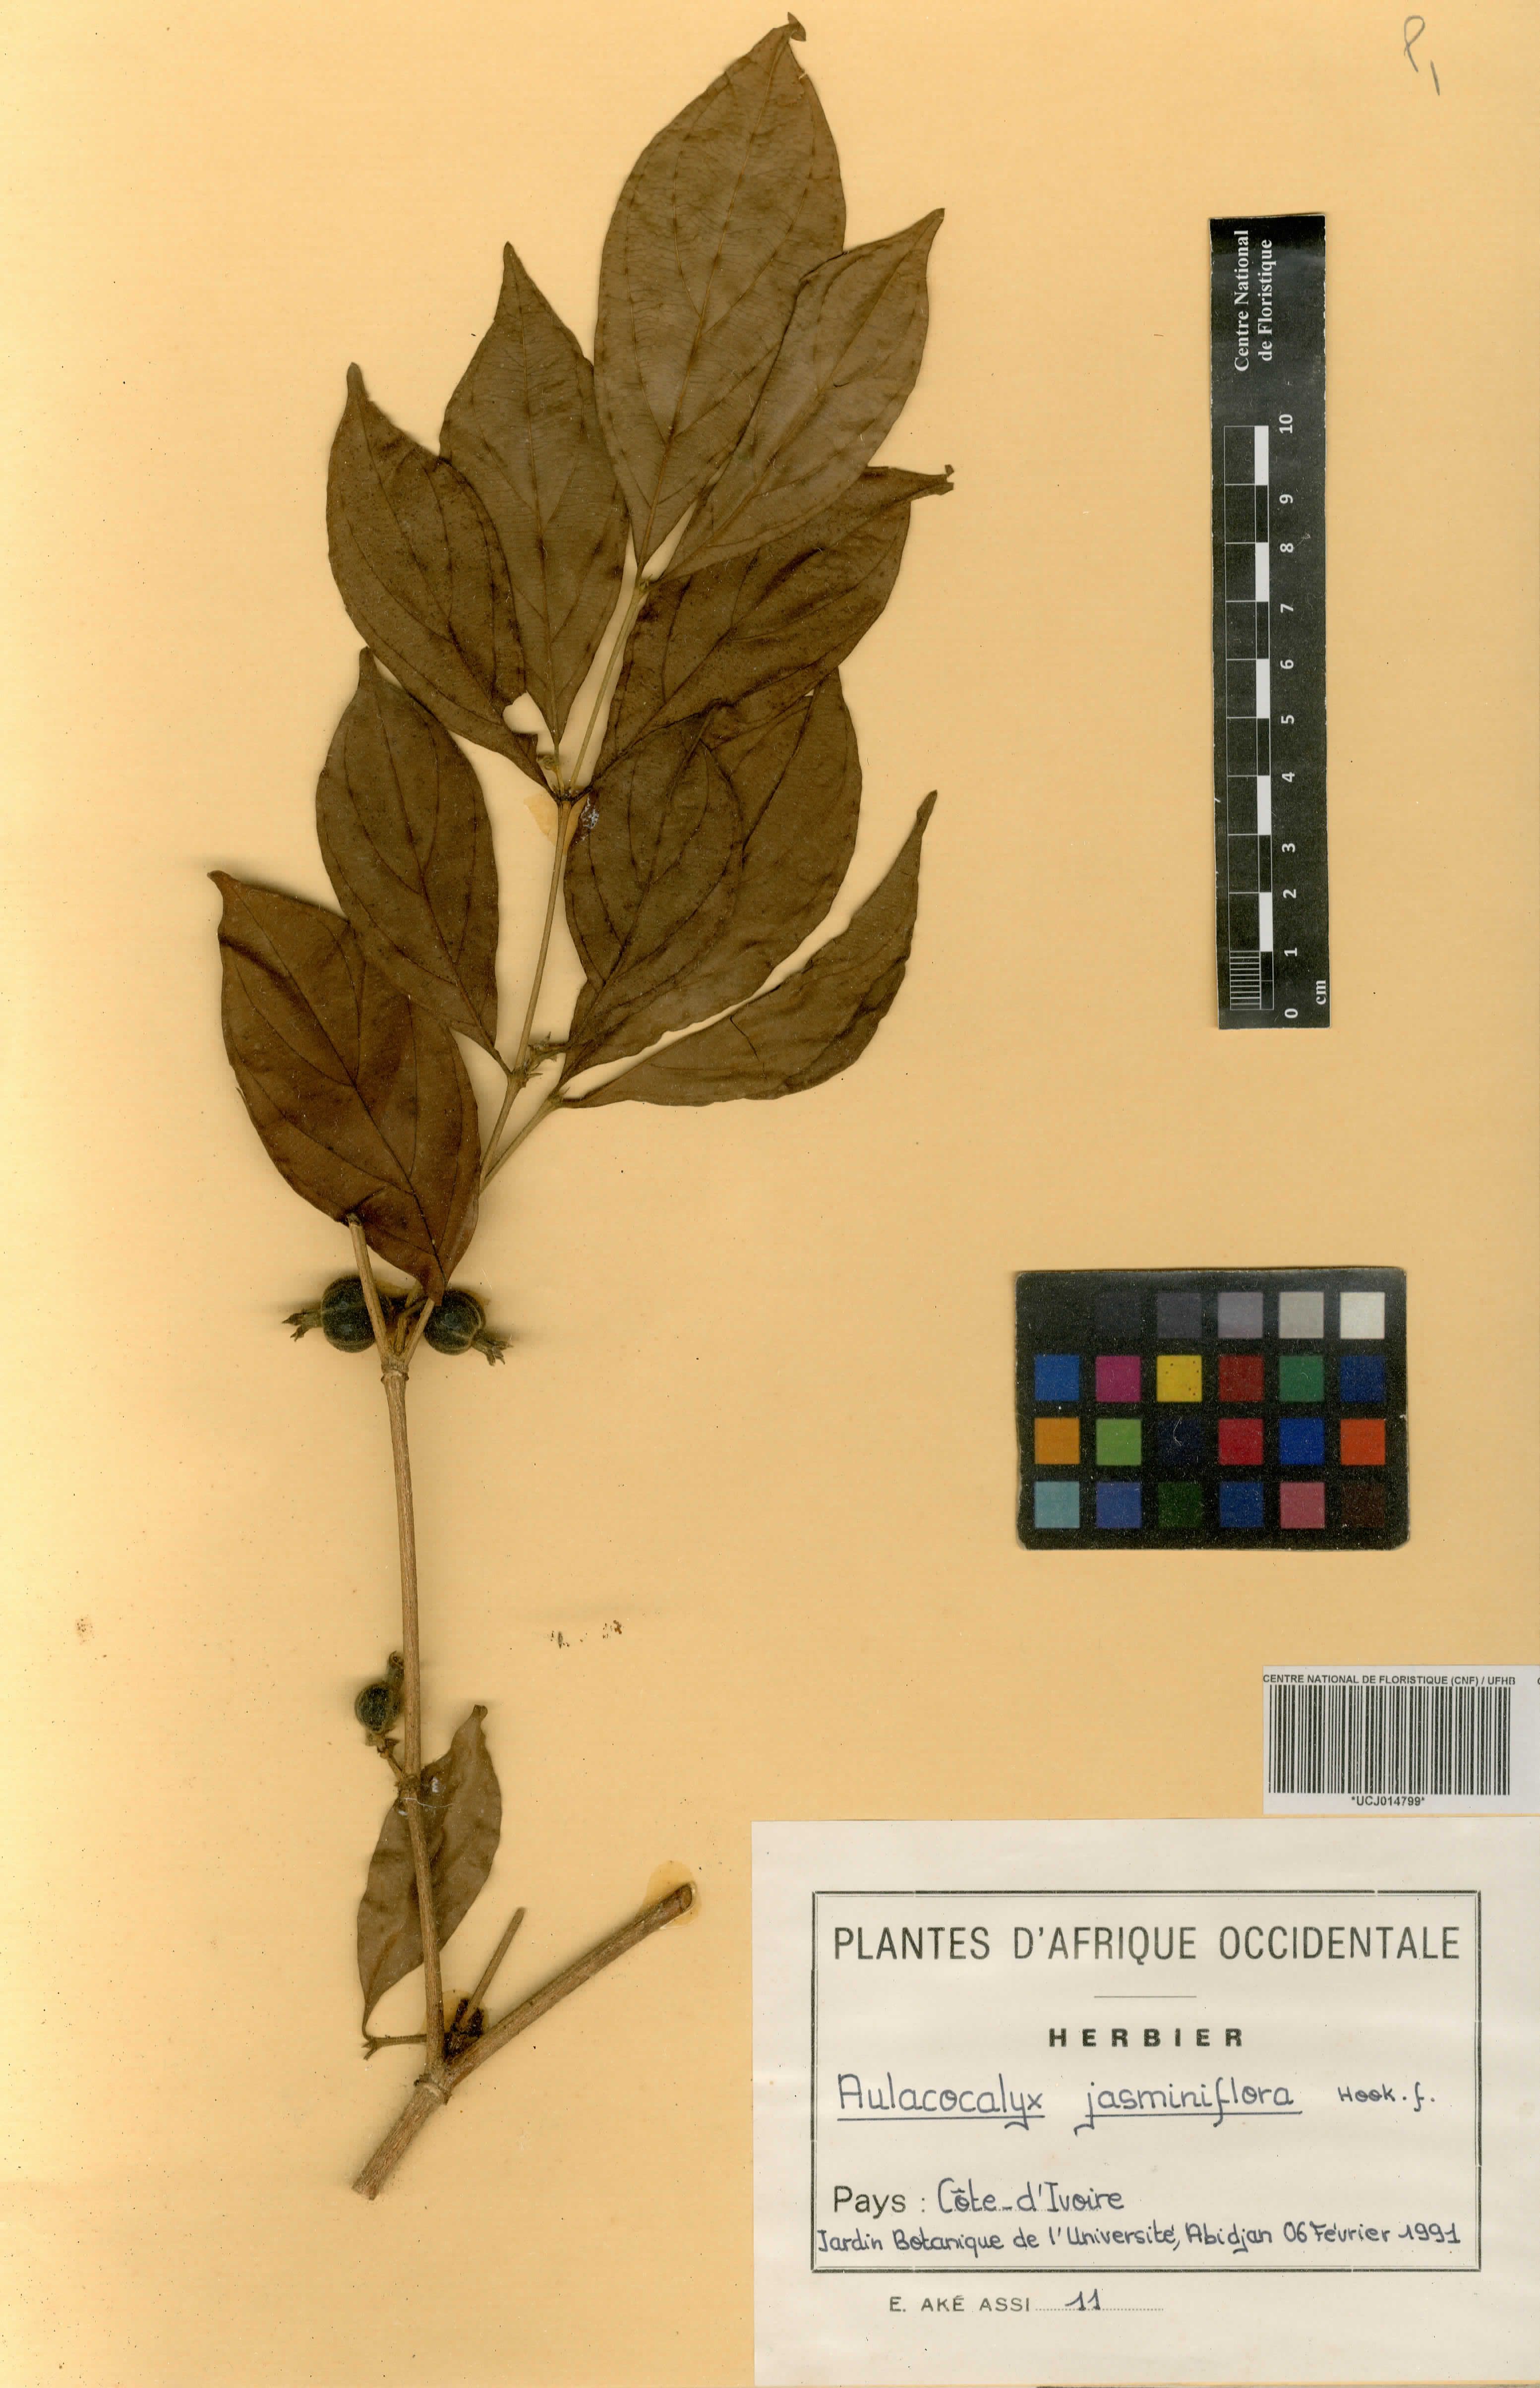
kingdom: Plantae
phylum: Tracheophyta
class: Magnoliopsida
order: Gentianales
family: Rubiaceae
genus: Aulacocalyx
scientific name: Aulacocalyx jasminiflora
